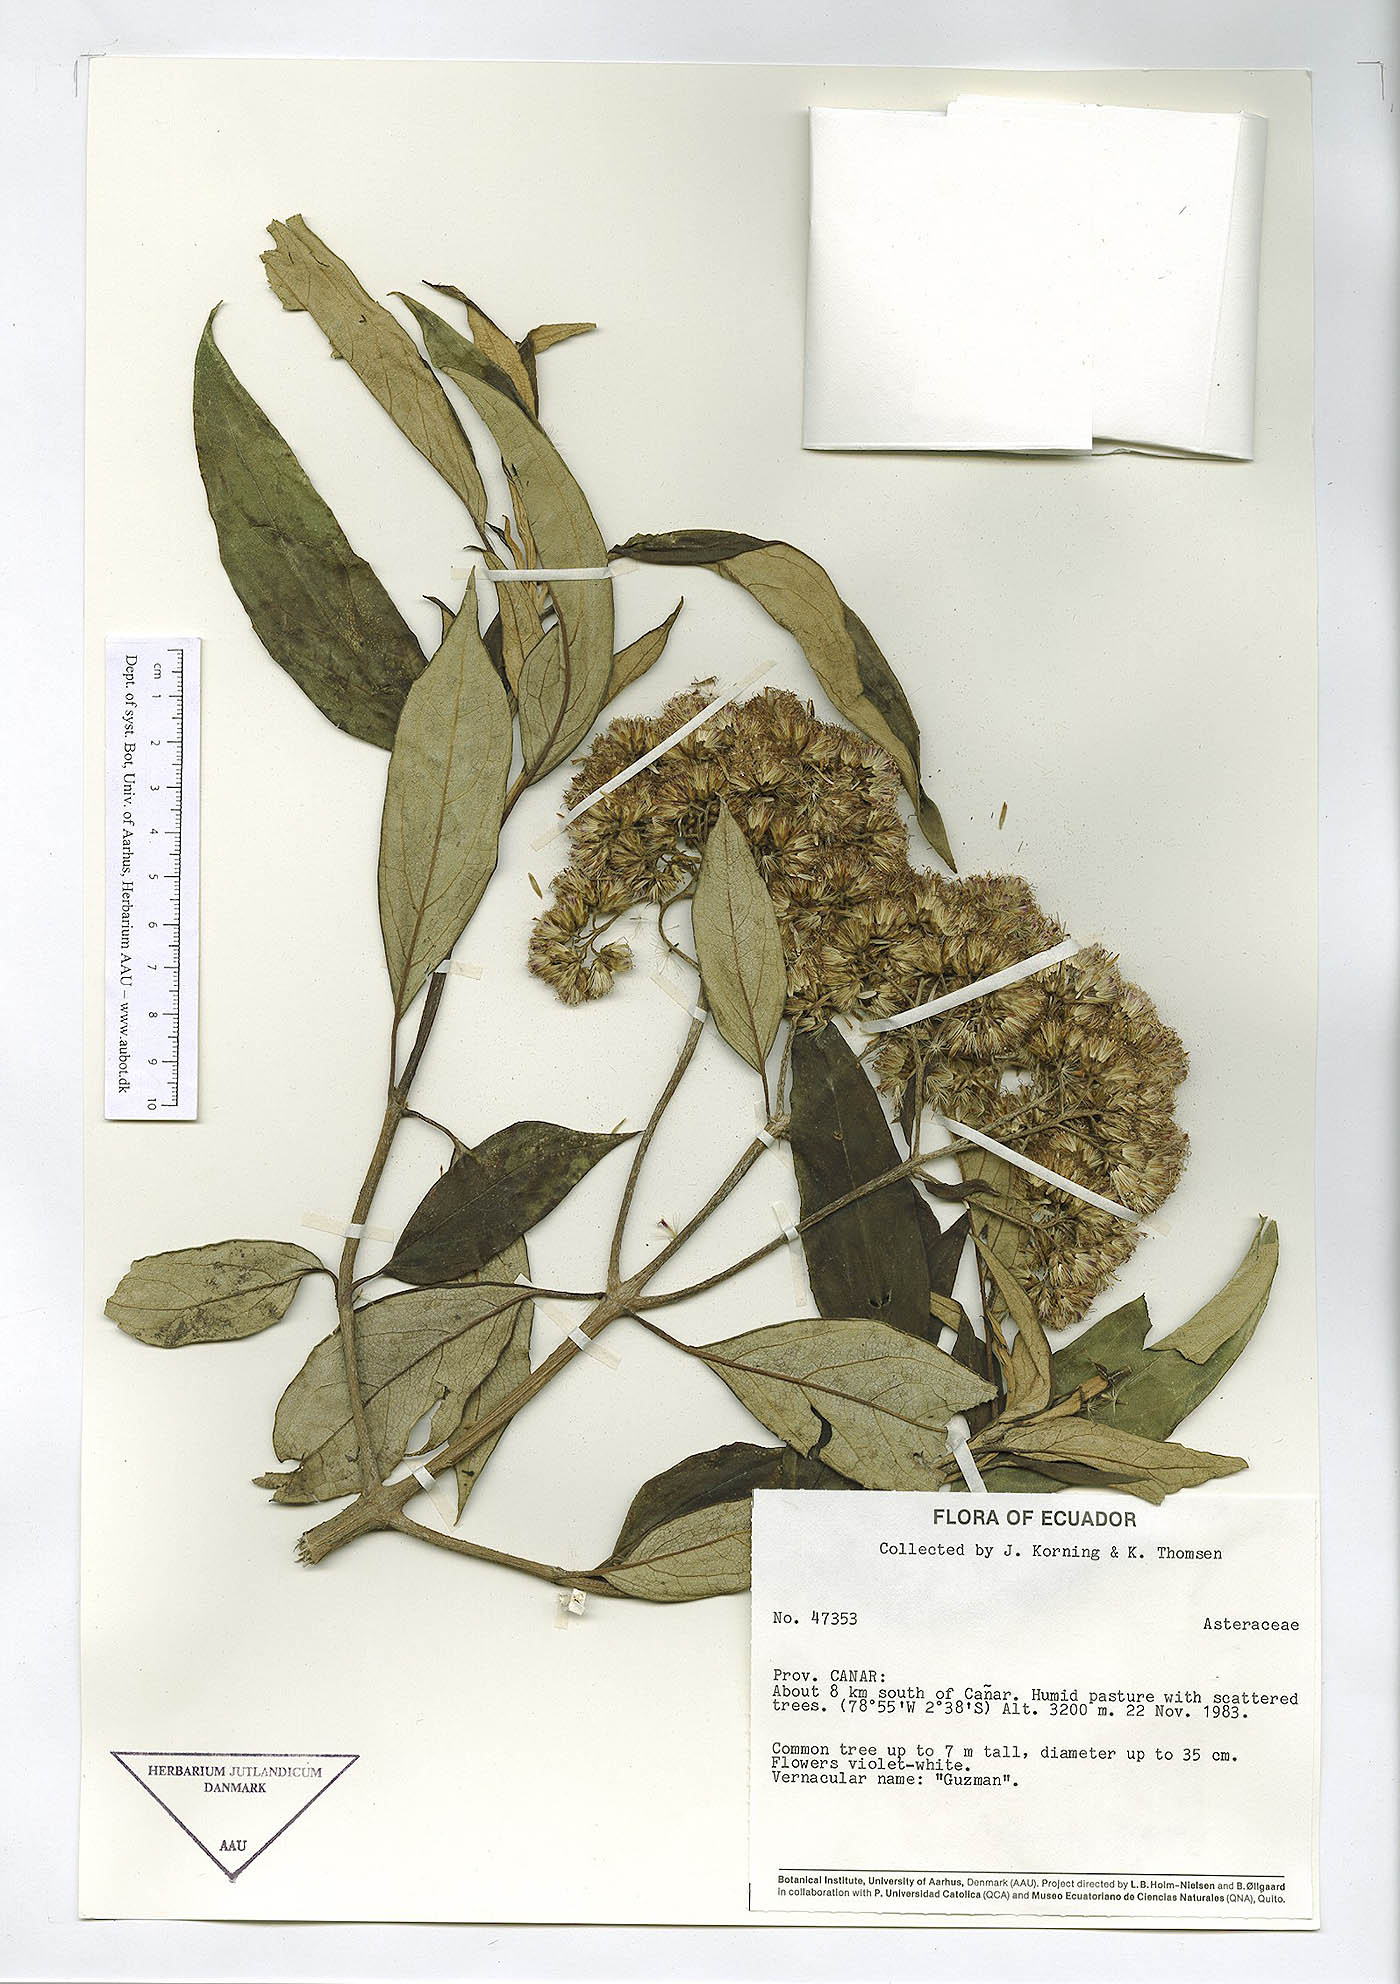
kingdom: Plantae
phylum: Tracheophyta
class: Magnoliopsida
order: Asterales
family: Asteraceae
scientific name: Asteraceae
